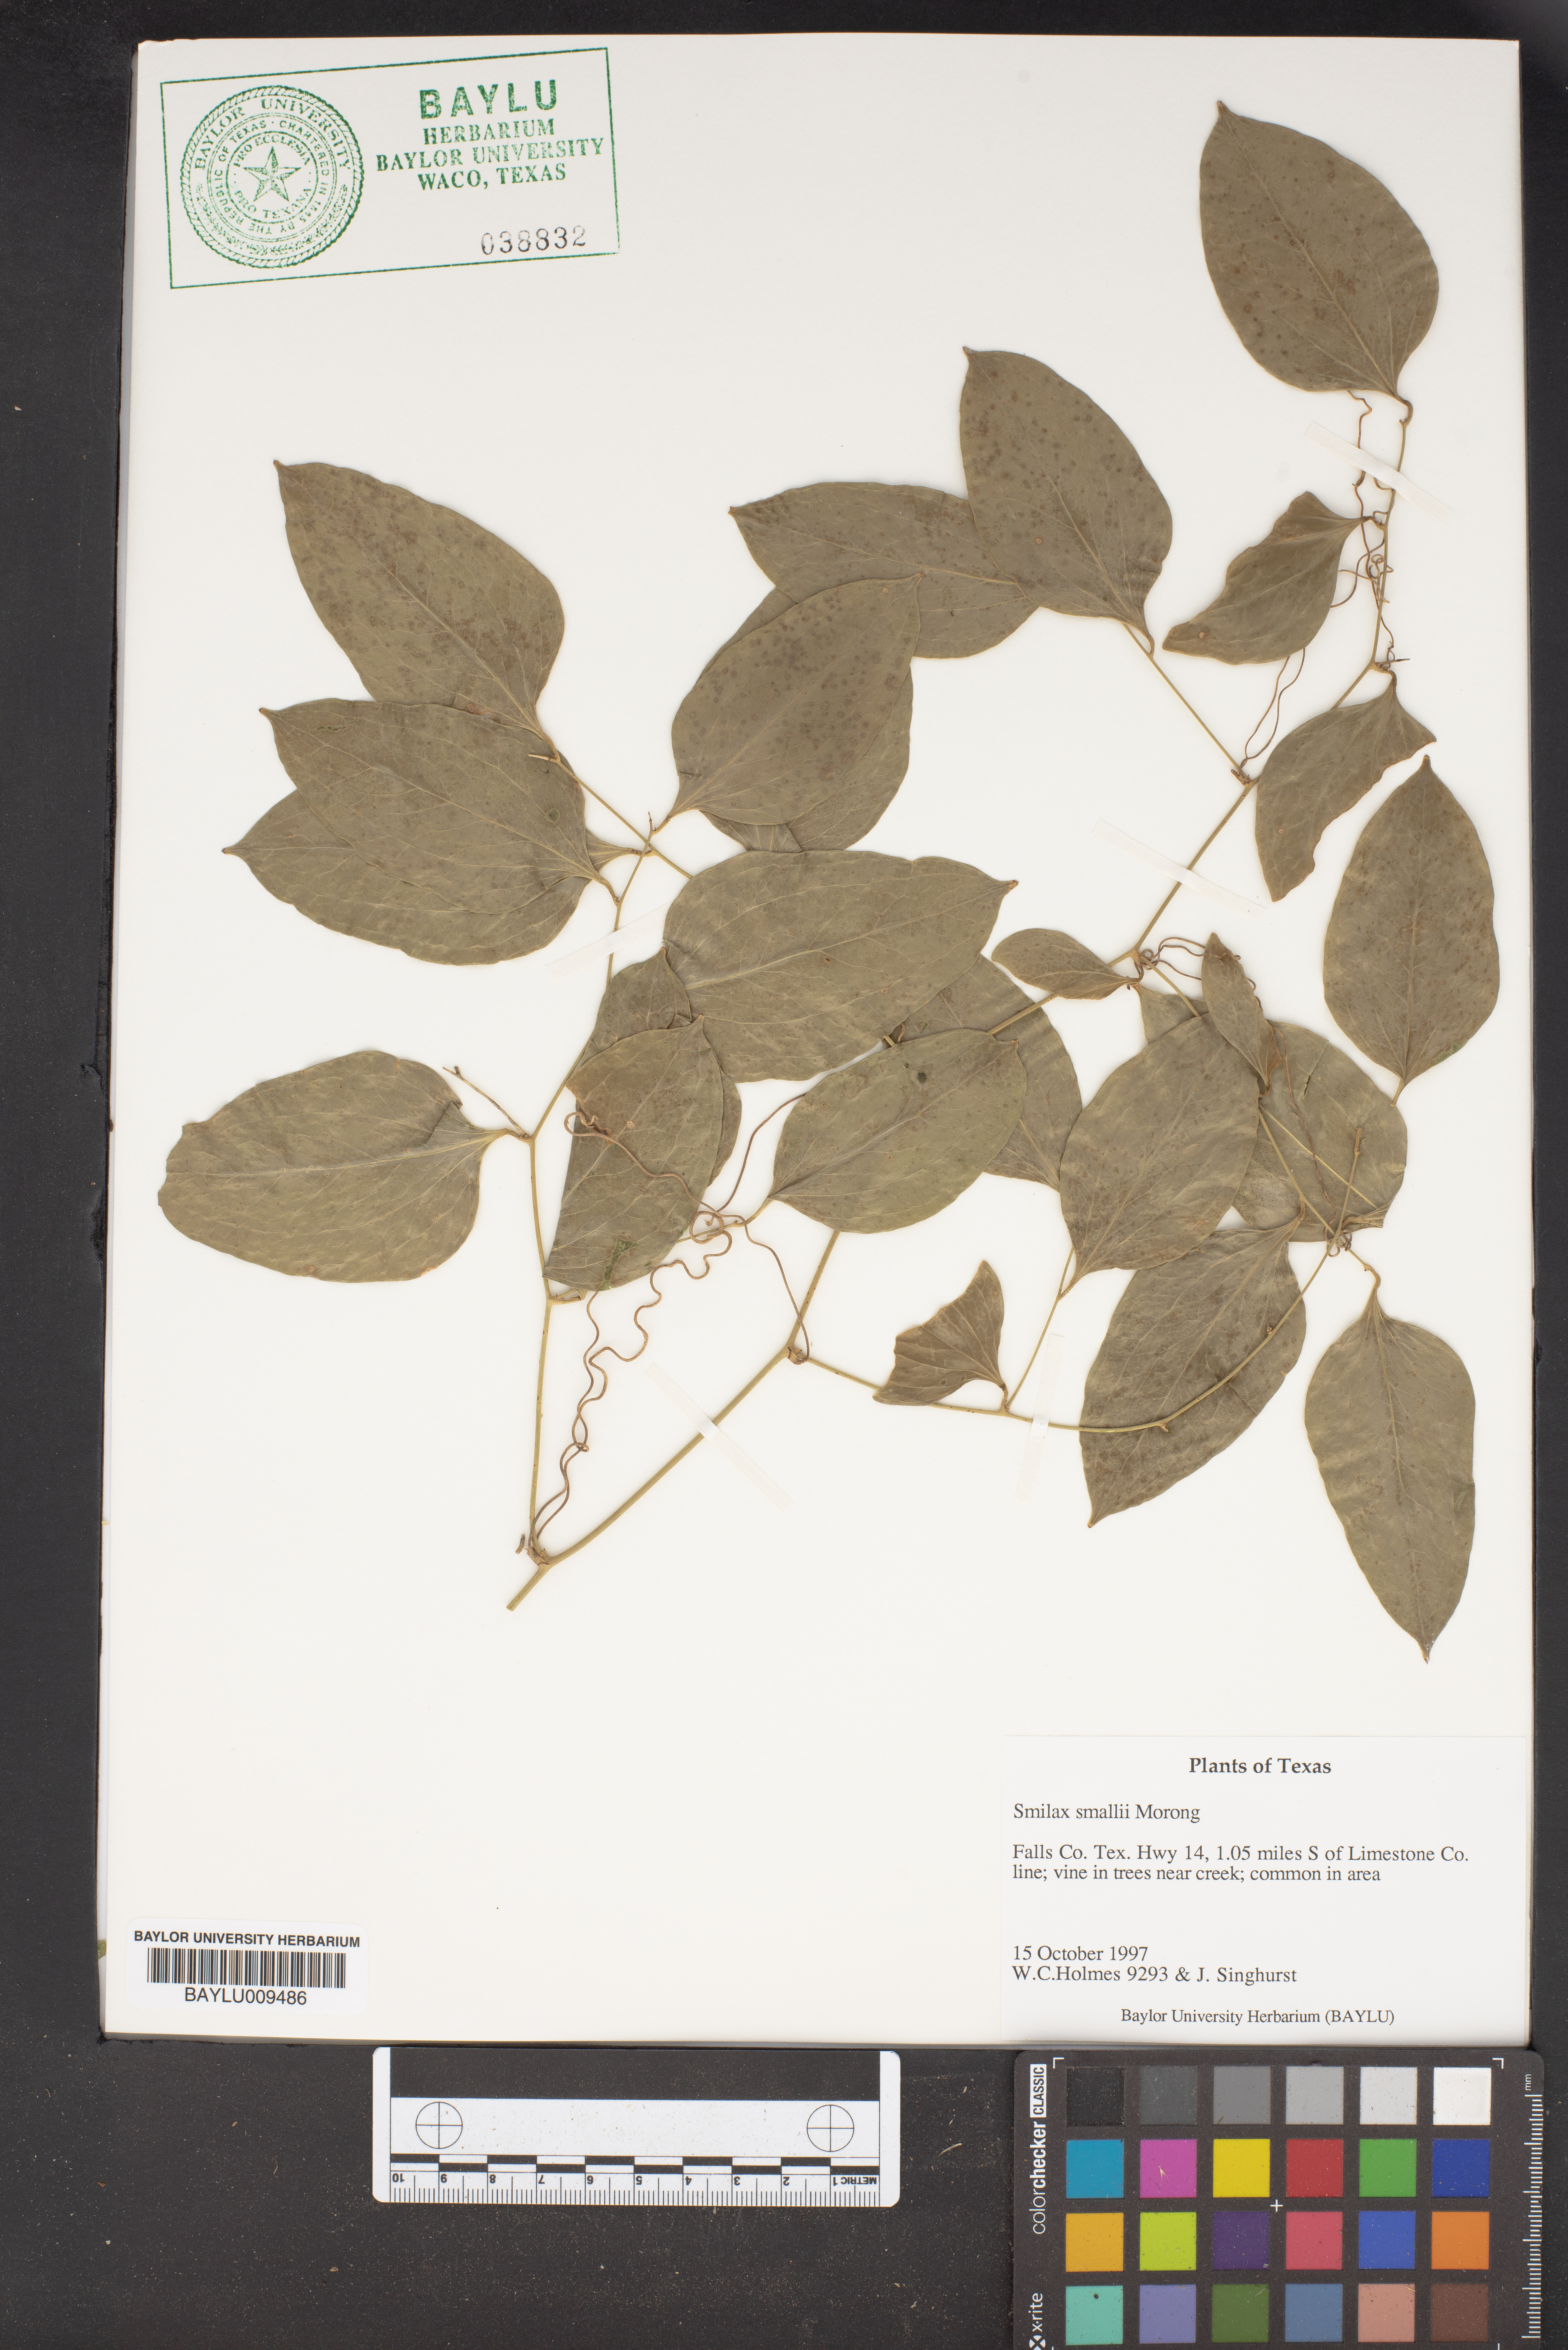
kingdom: Plantae
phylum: Tracheophyta
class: Liliopsida
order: Liliales
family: Smilacaceae
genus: Smilax
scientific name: Smilax maritima
